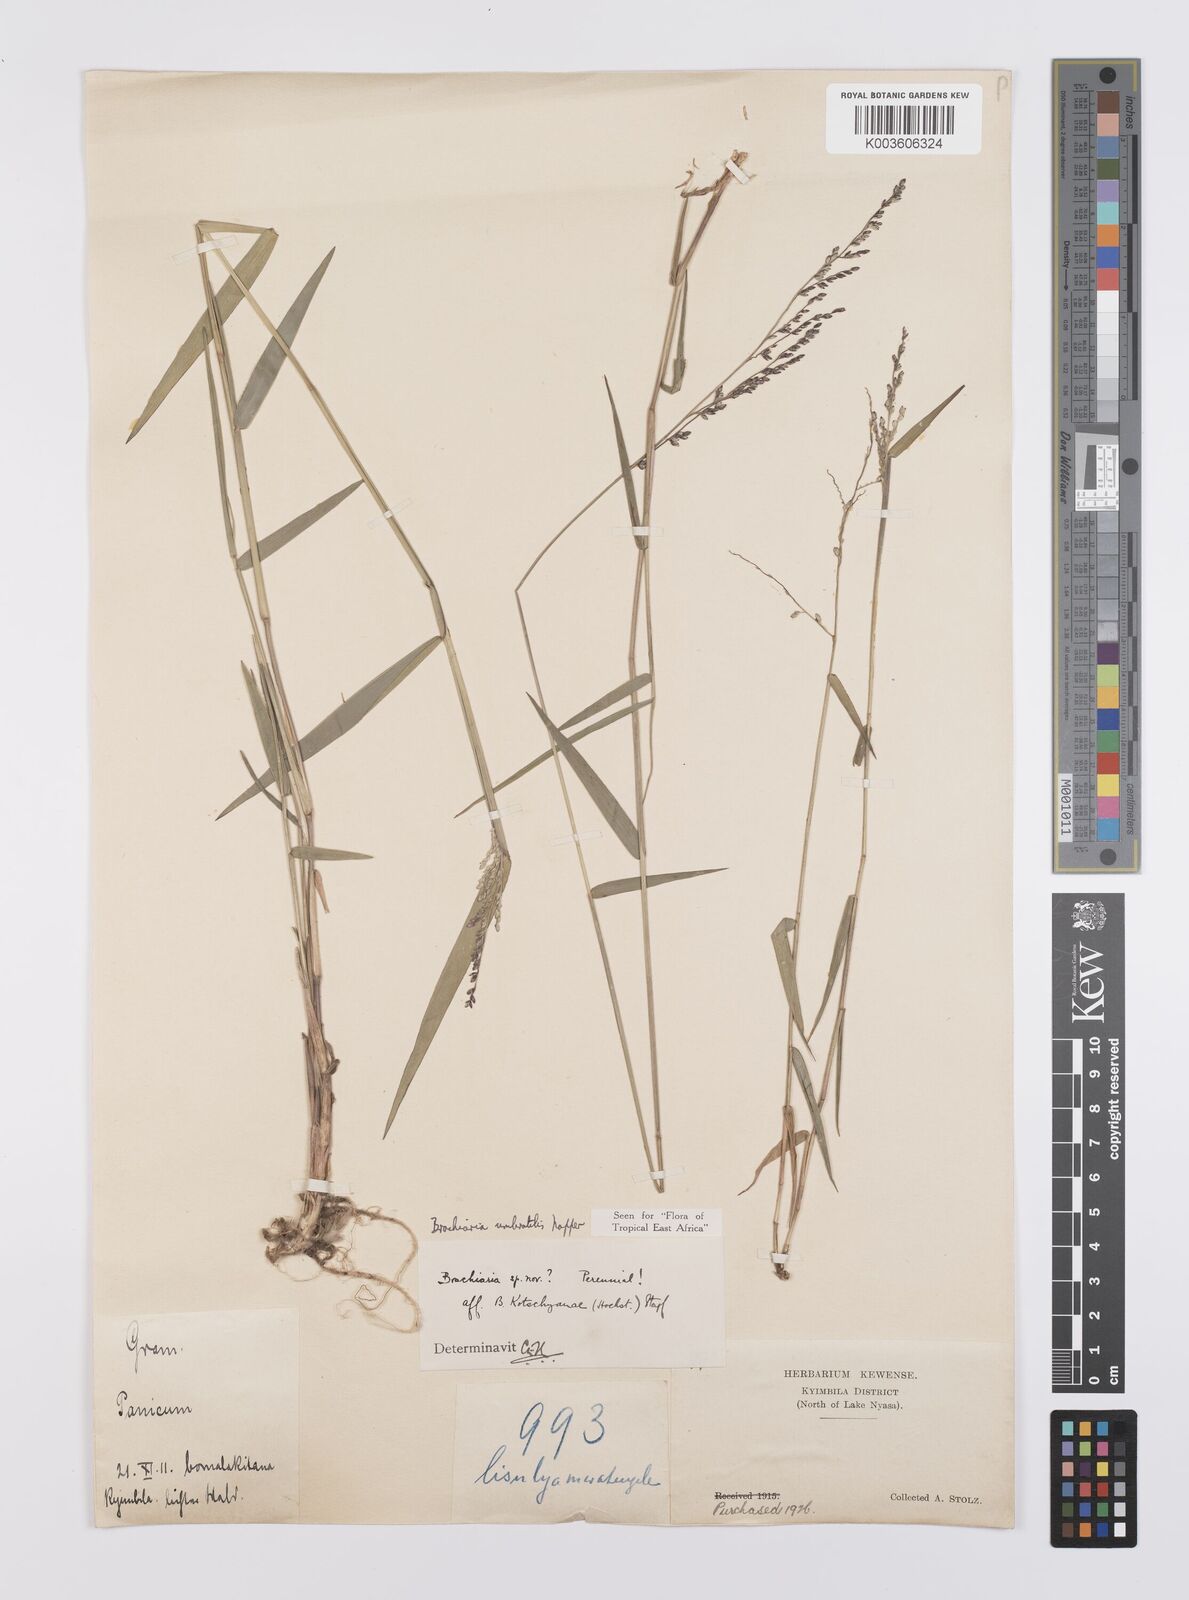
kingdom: Plantae
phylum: Tracheophyta
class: Liliopsida
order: Poales
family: Poaceae
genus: Urochloa
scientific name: Urochloa Brachiaria umbratilis
